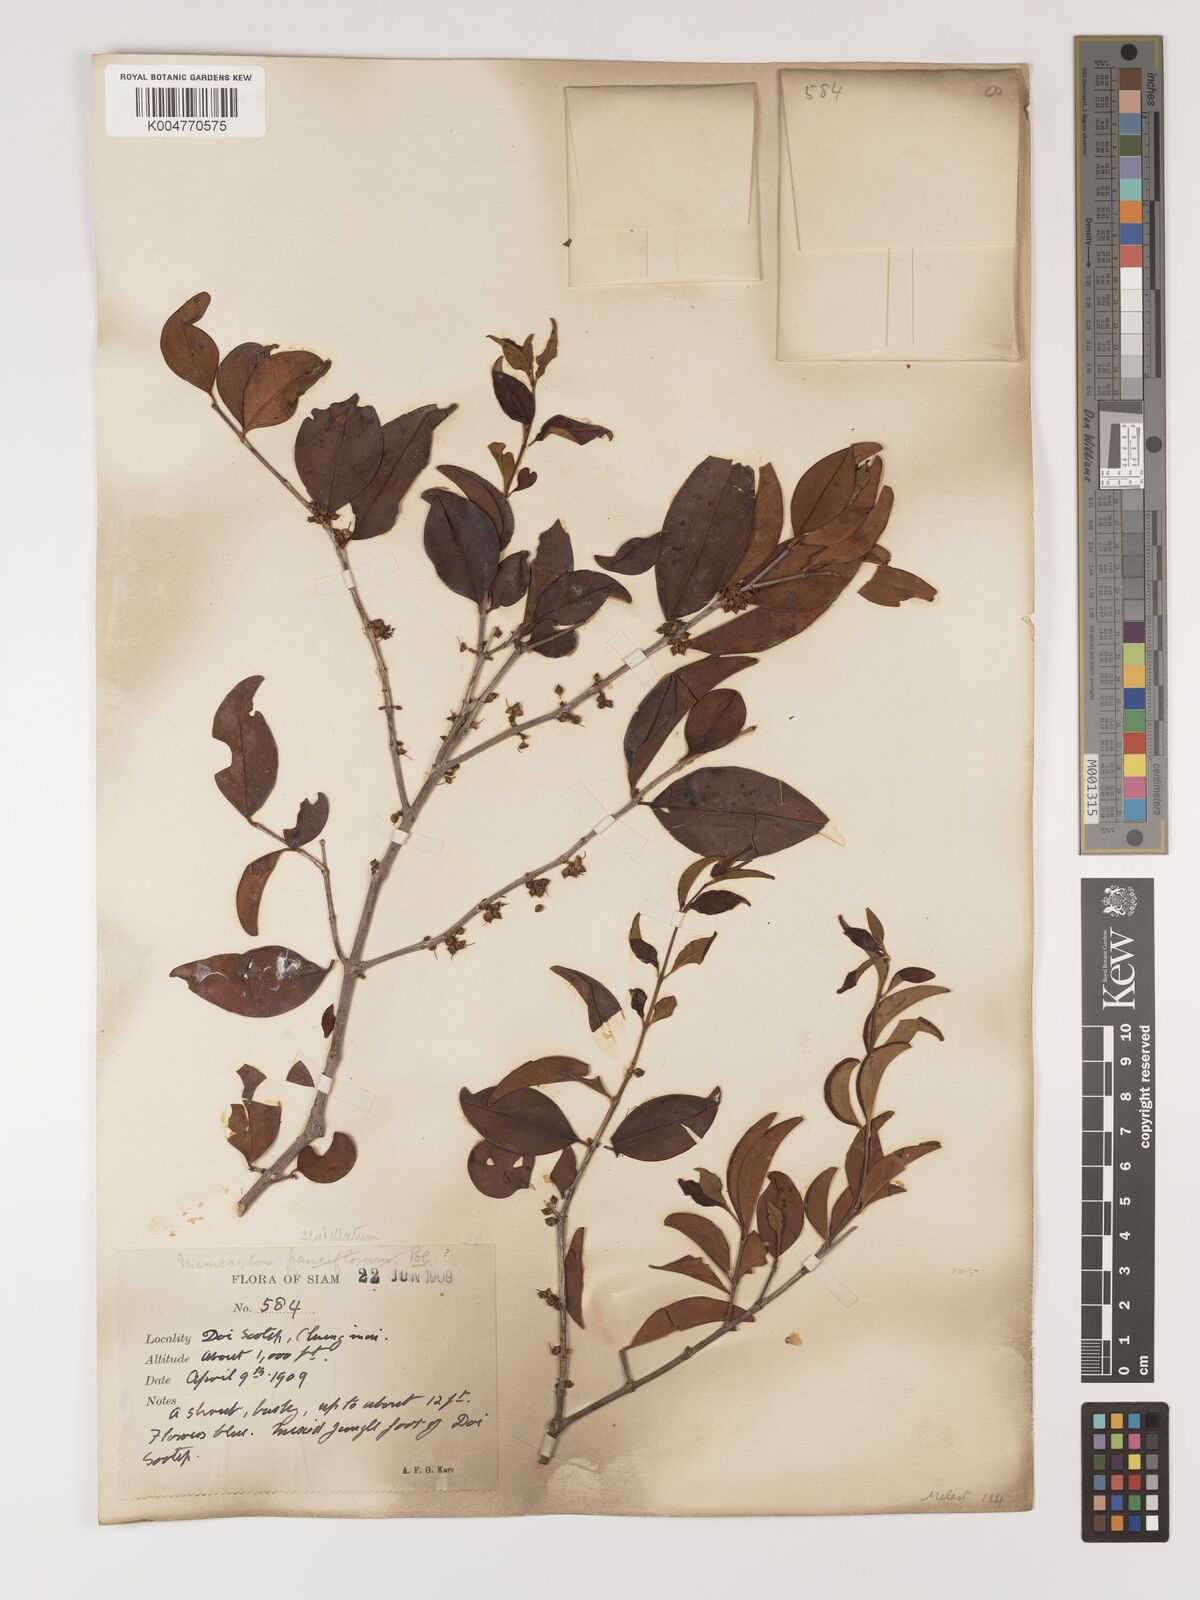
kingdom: Plantae
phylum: Tracheophyta
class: Magnoliopsida
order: Myrtales
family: Melastomataceae
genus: Memecylon
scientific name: Memecylon scutellatum
